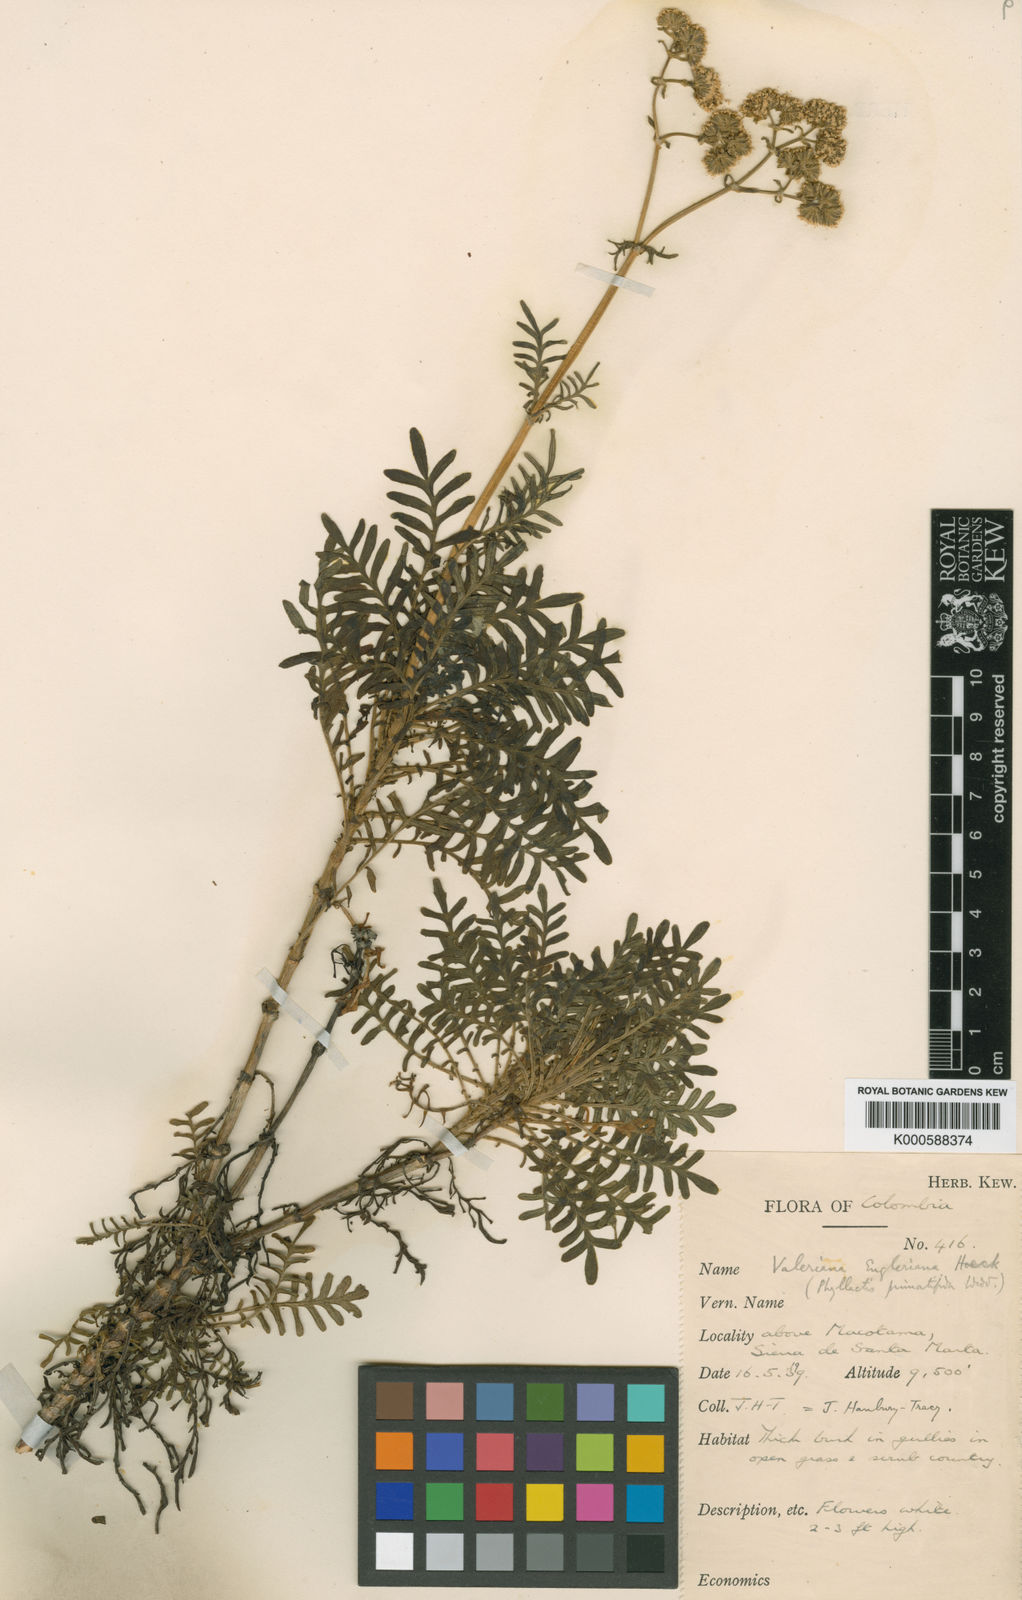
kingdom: Plantae
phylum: Tracheophyta
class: Magnoliopsida
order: Dipsacales
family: Caprifoliaceae
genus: Valeriana
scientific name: Valeriana
